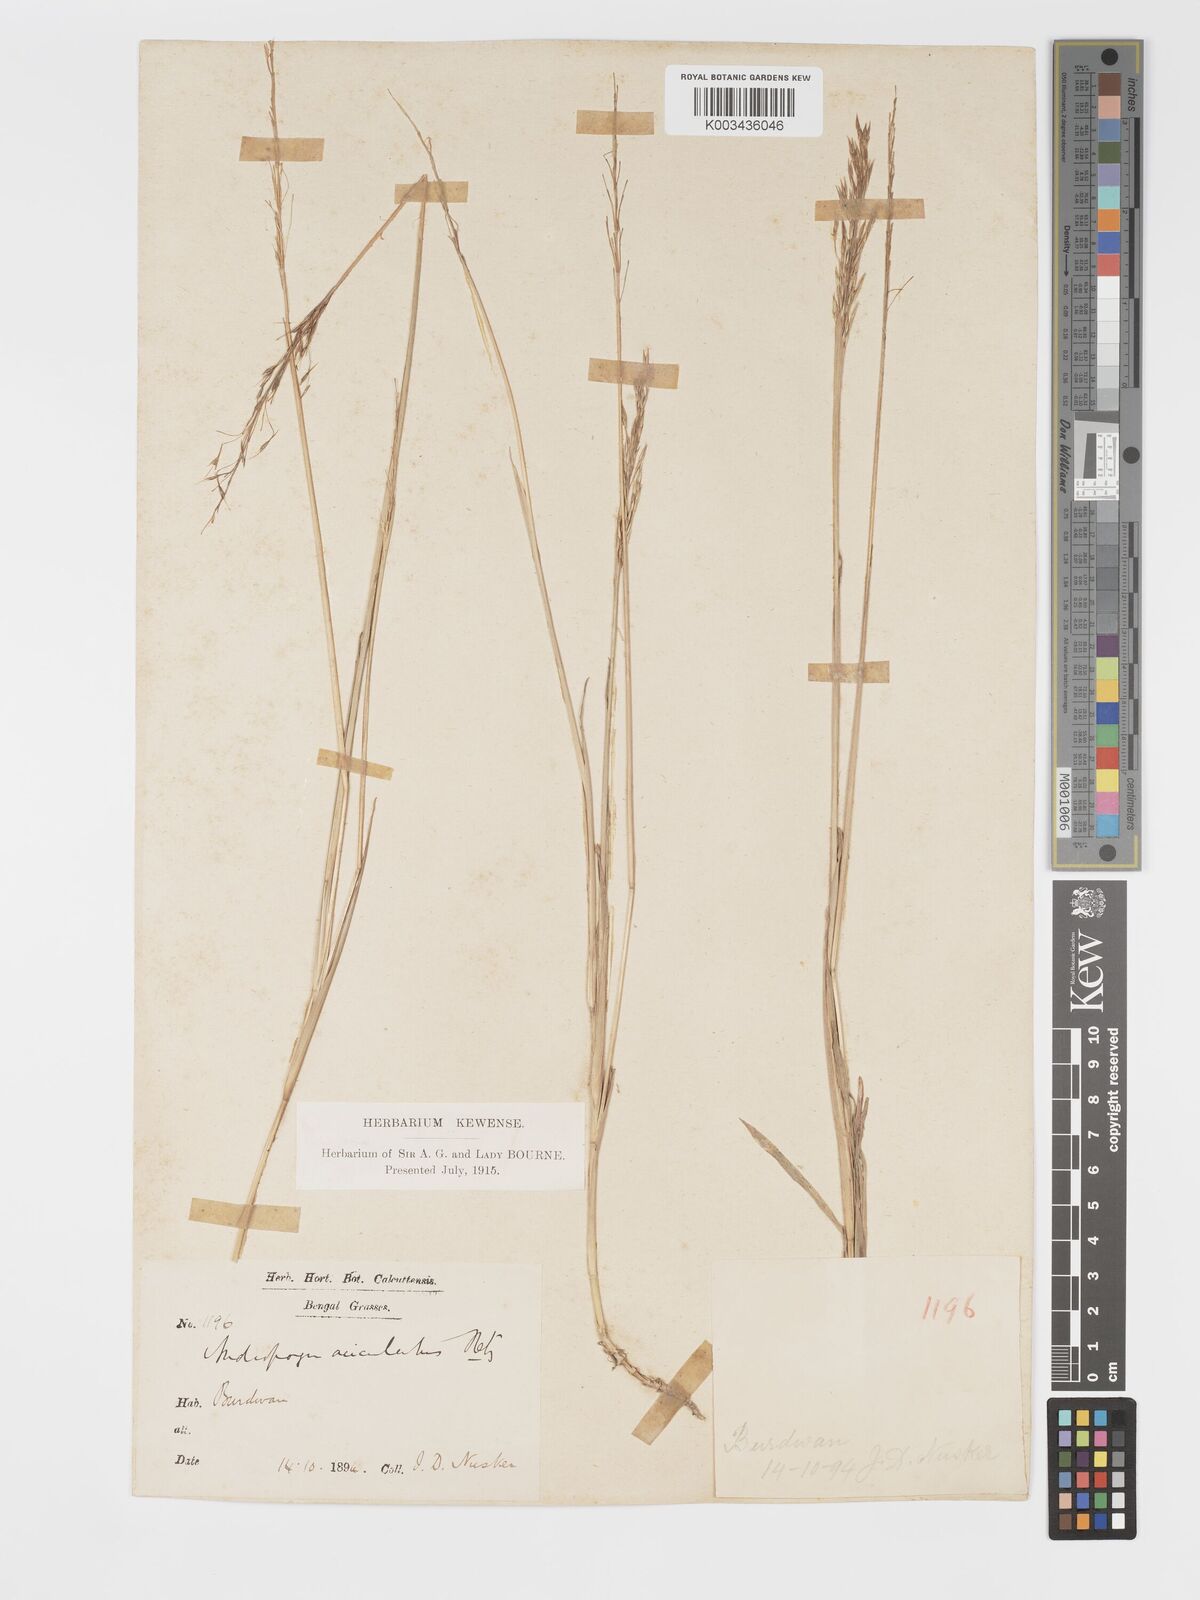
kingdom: Plantae
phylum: Tracheophyta
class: Liliopsida
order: Poales
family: Poaceae
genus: Chrysopogon
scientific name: Chrysopogon aciculatus
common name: Pilipiliula
